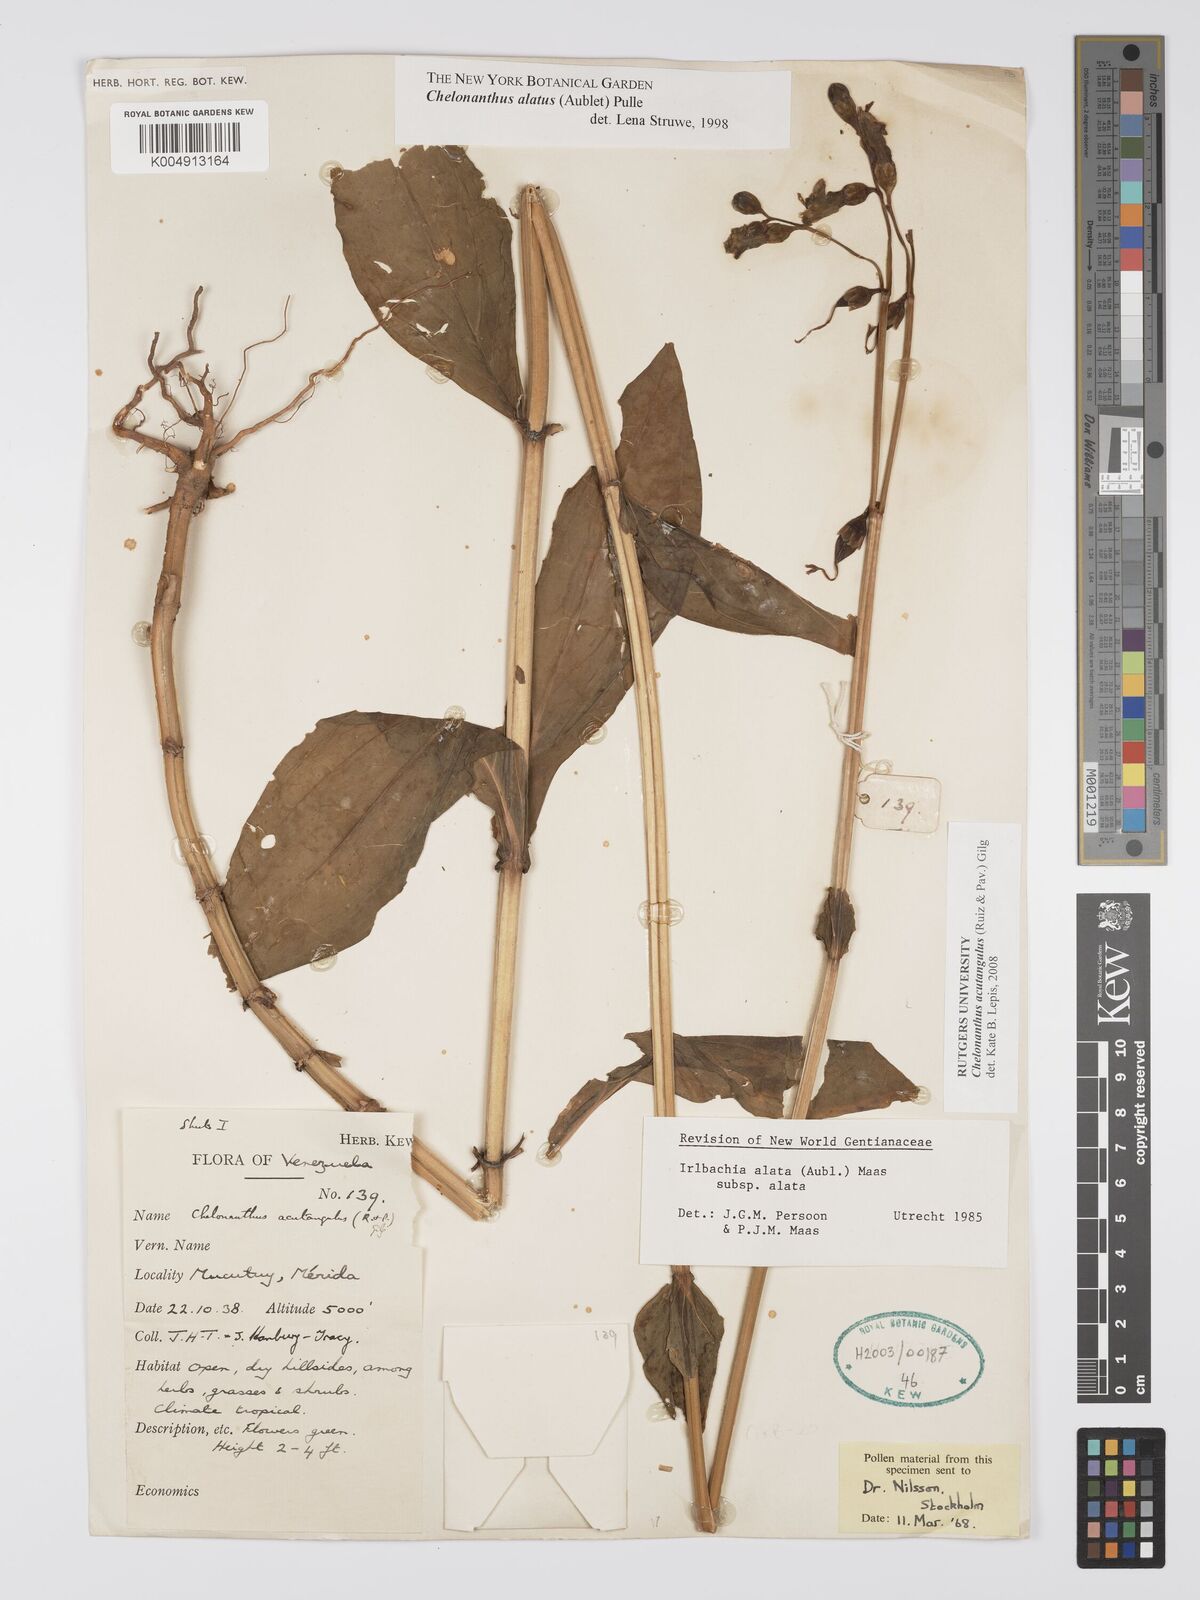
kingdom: Plantae
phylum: Tracheophyta
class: Magnoliopsida
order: Gentianales
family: Gentianaceae
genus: Chelonanthus
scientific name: Chelonanthus alatus
